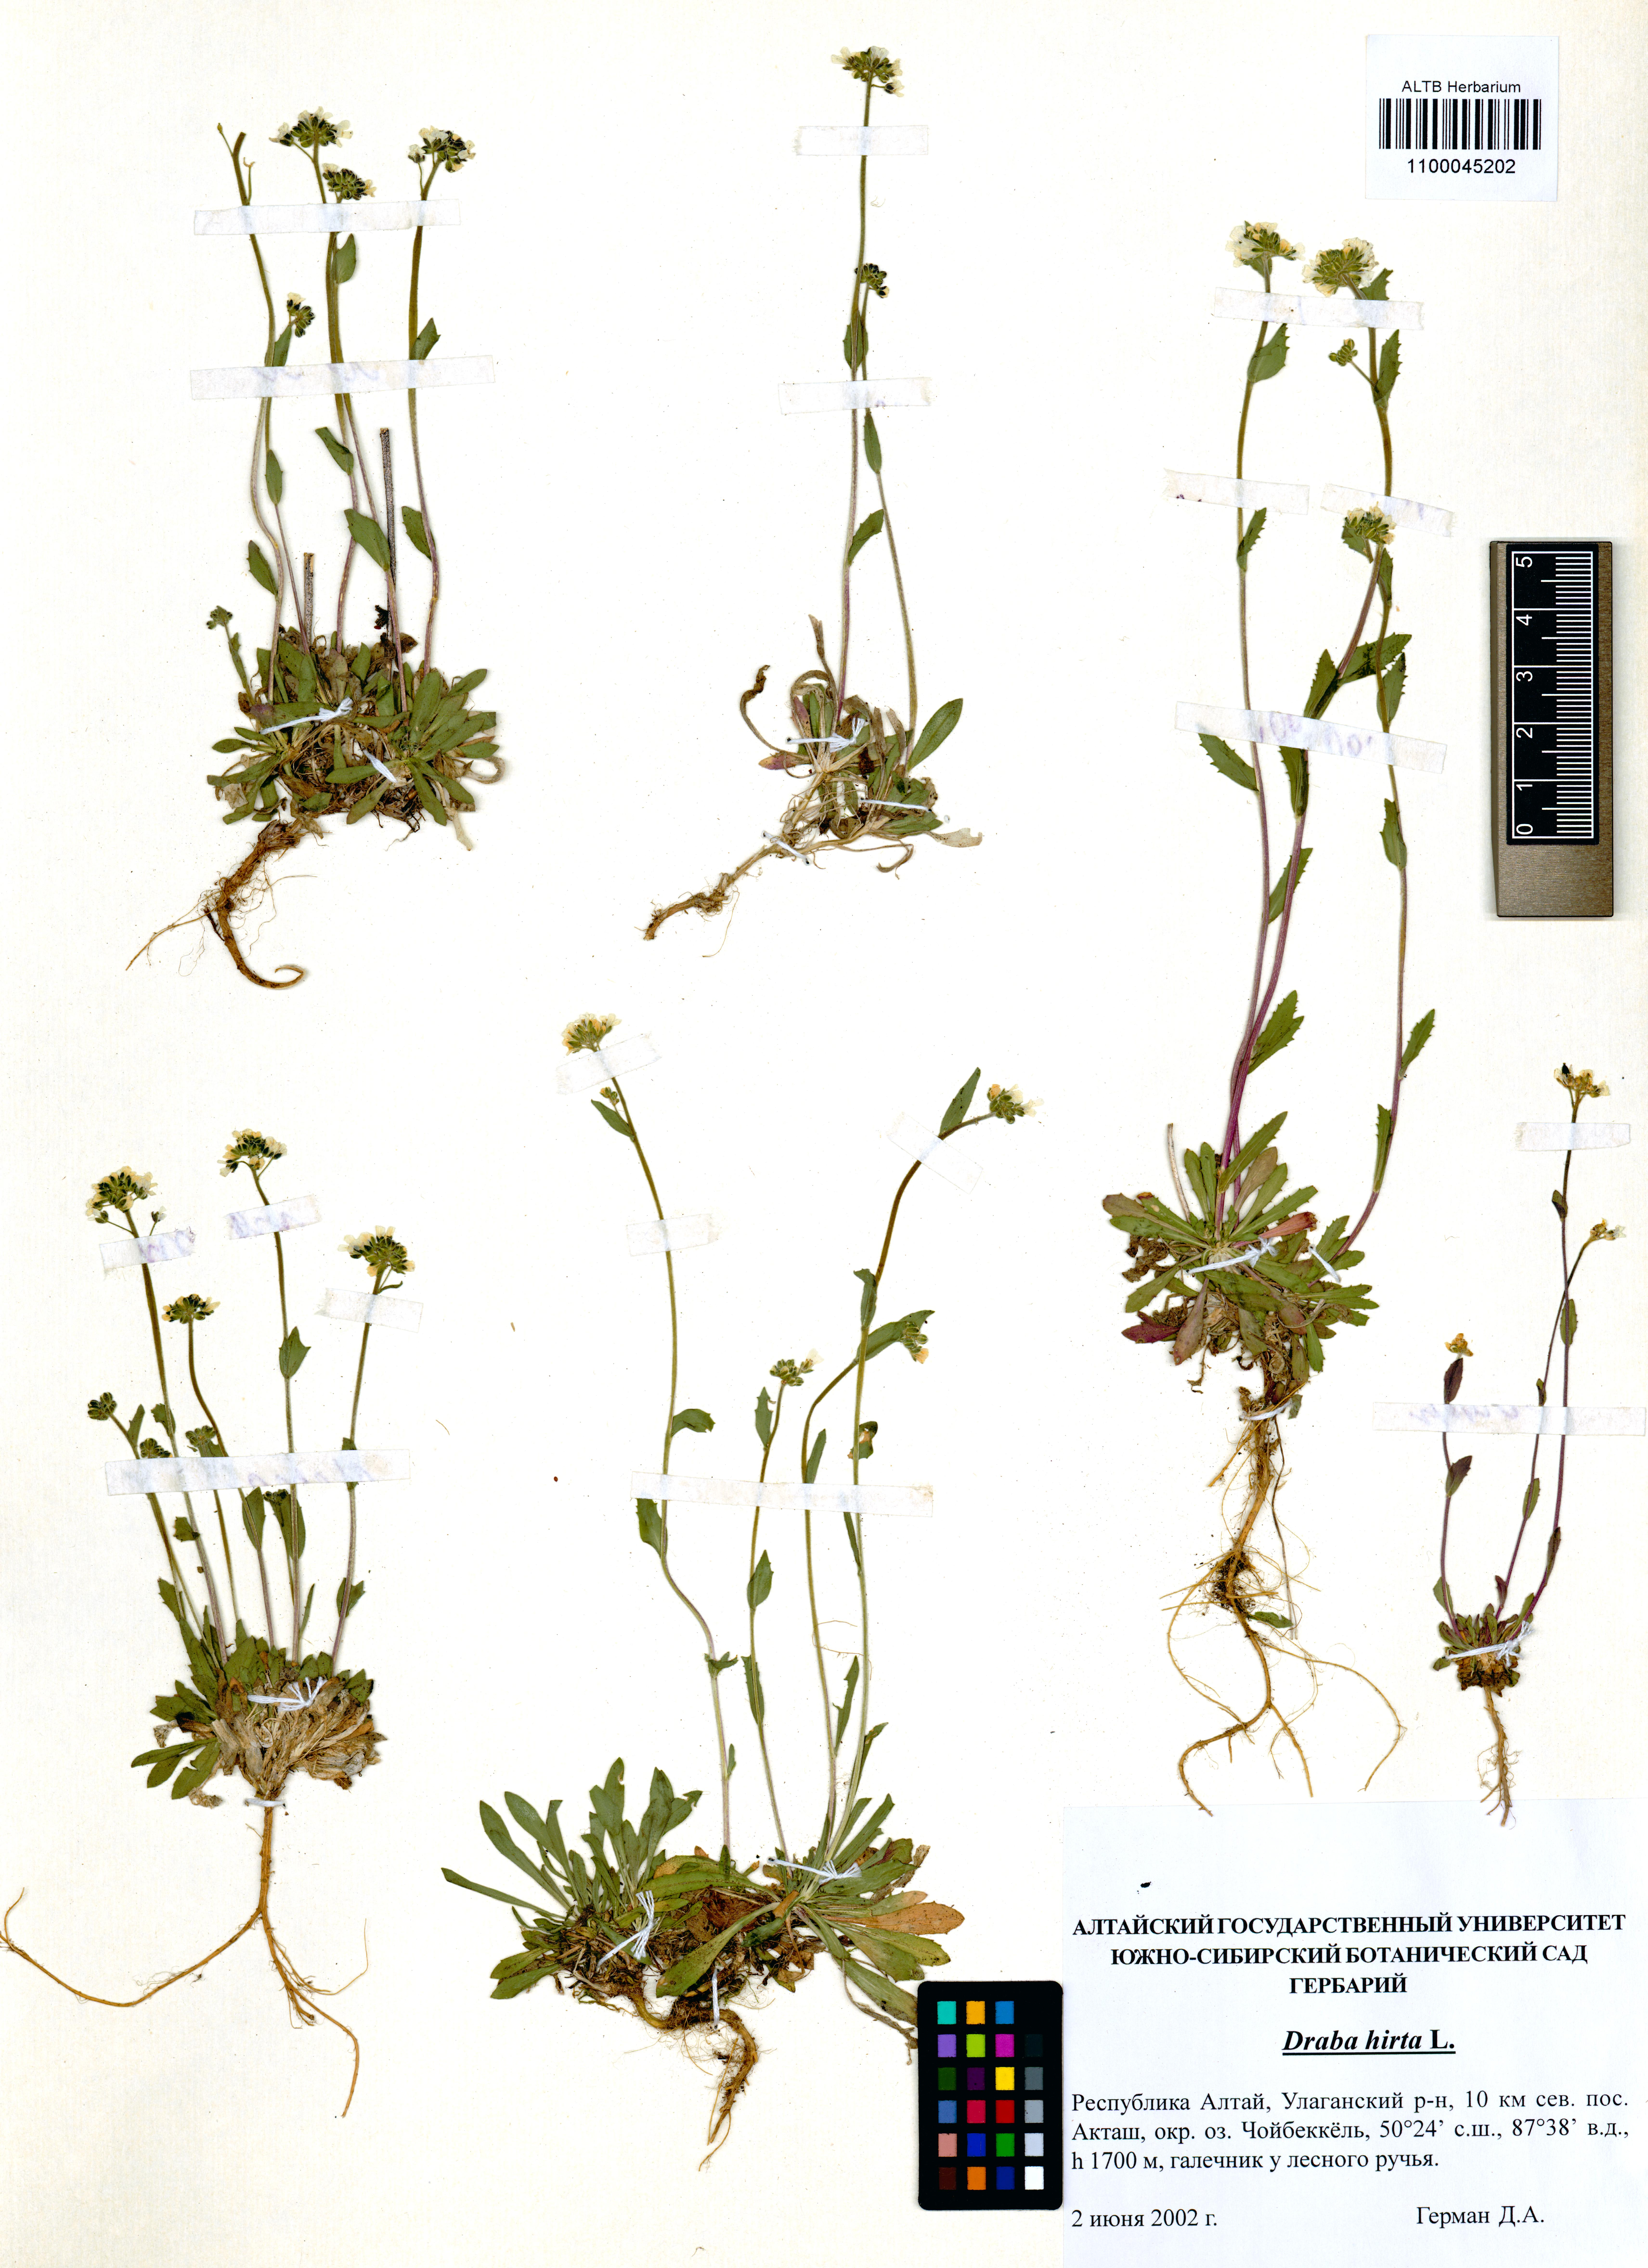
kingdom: Plantae
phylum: Tracheophyta
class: Magnoliopsida
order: Brassicales
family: Brassicaceae
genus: Draba
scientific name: Draba glabella
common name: Glaucous draba
